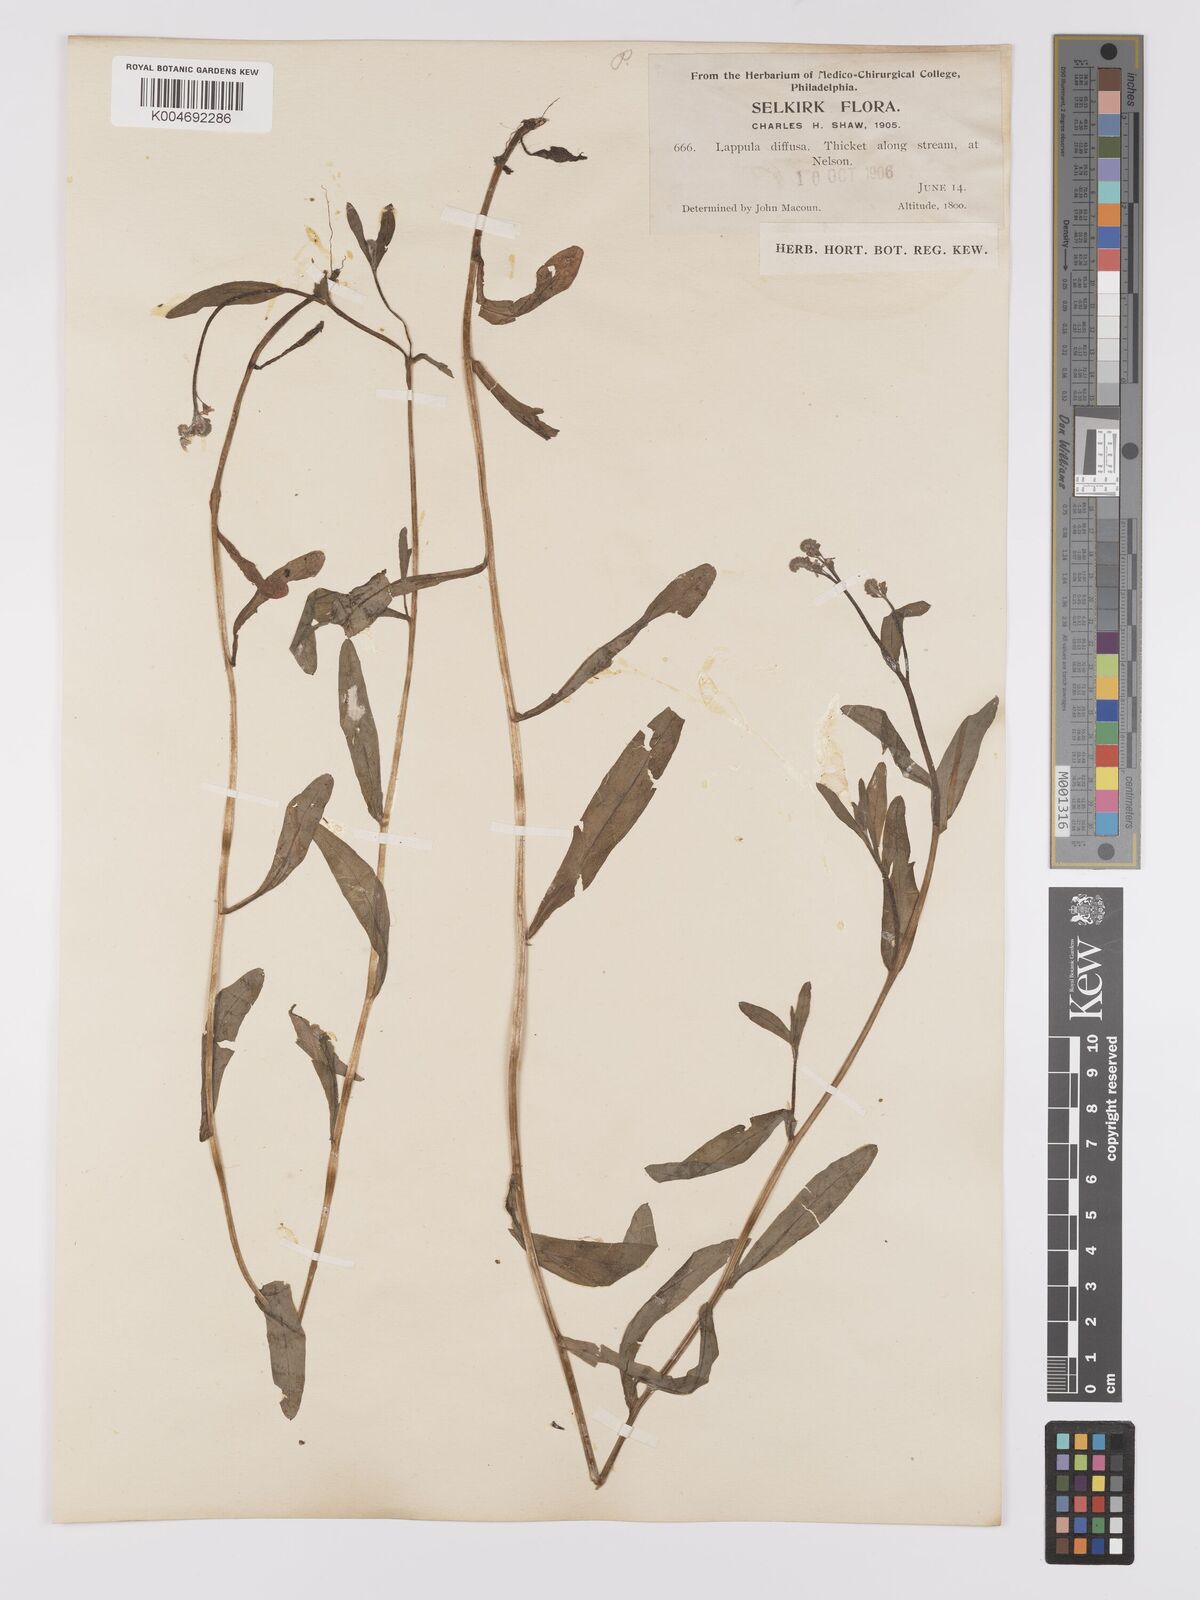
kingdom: Plantae
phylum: Tracheophyta
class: Magnoliopsida
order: Boraginales
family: Boraginaceae
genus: Hackelia
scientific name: Hackelia diffusa
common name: Spreading hackelia
